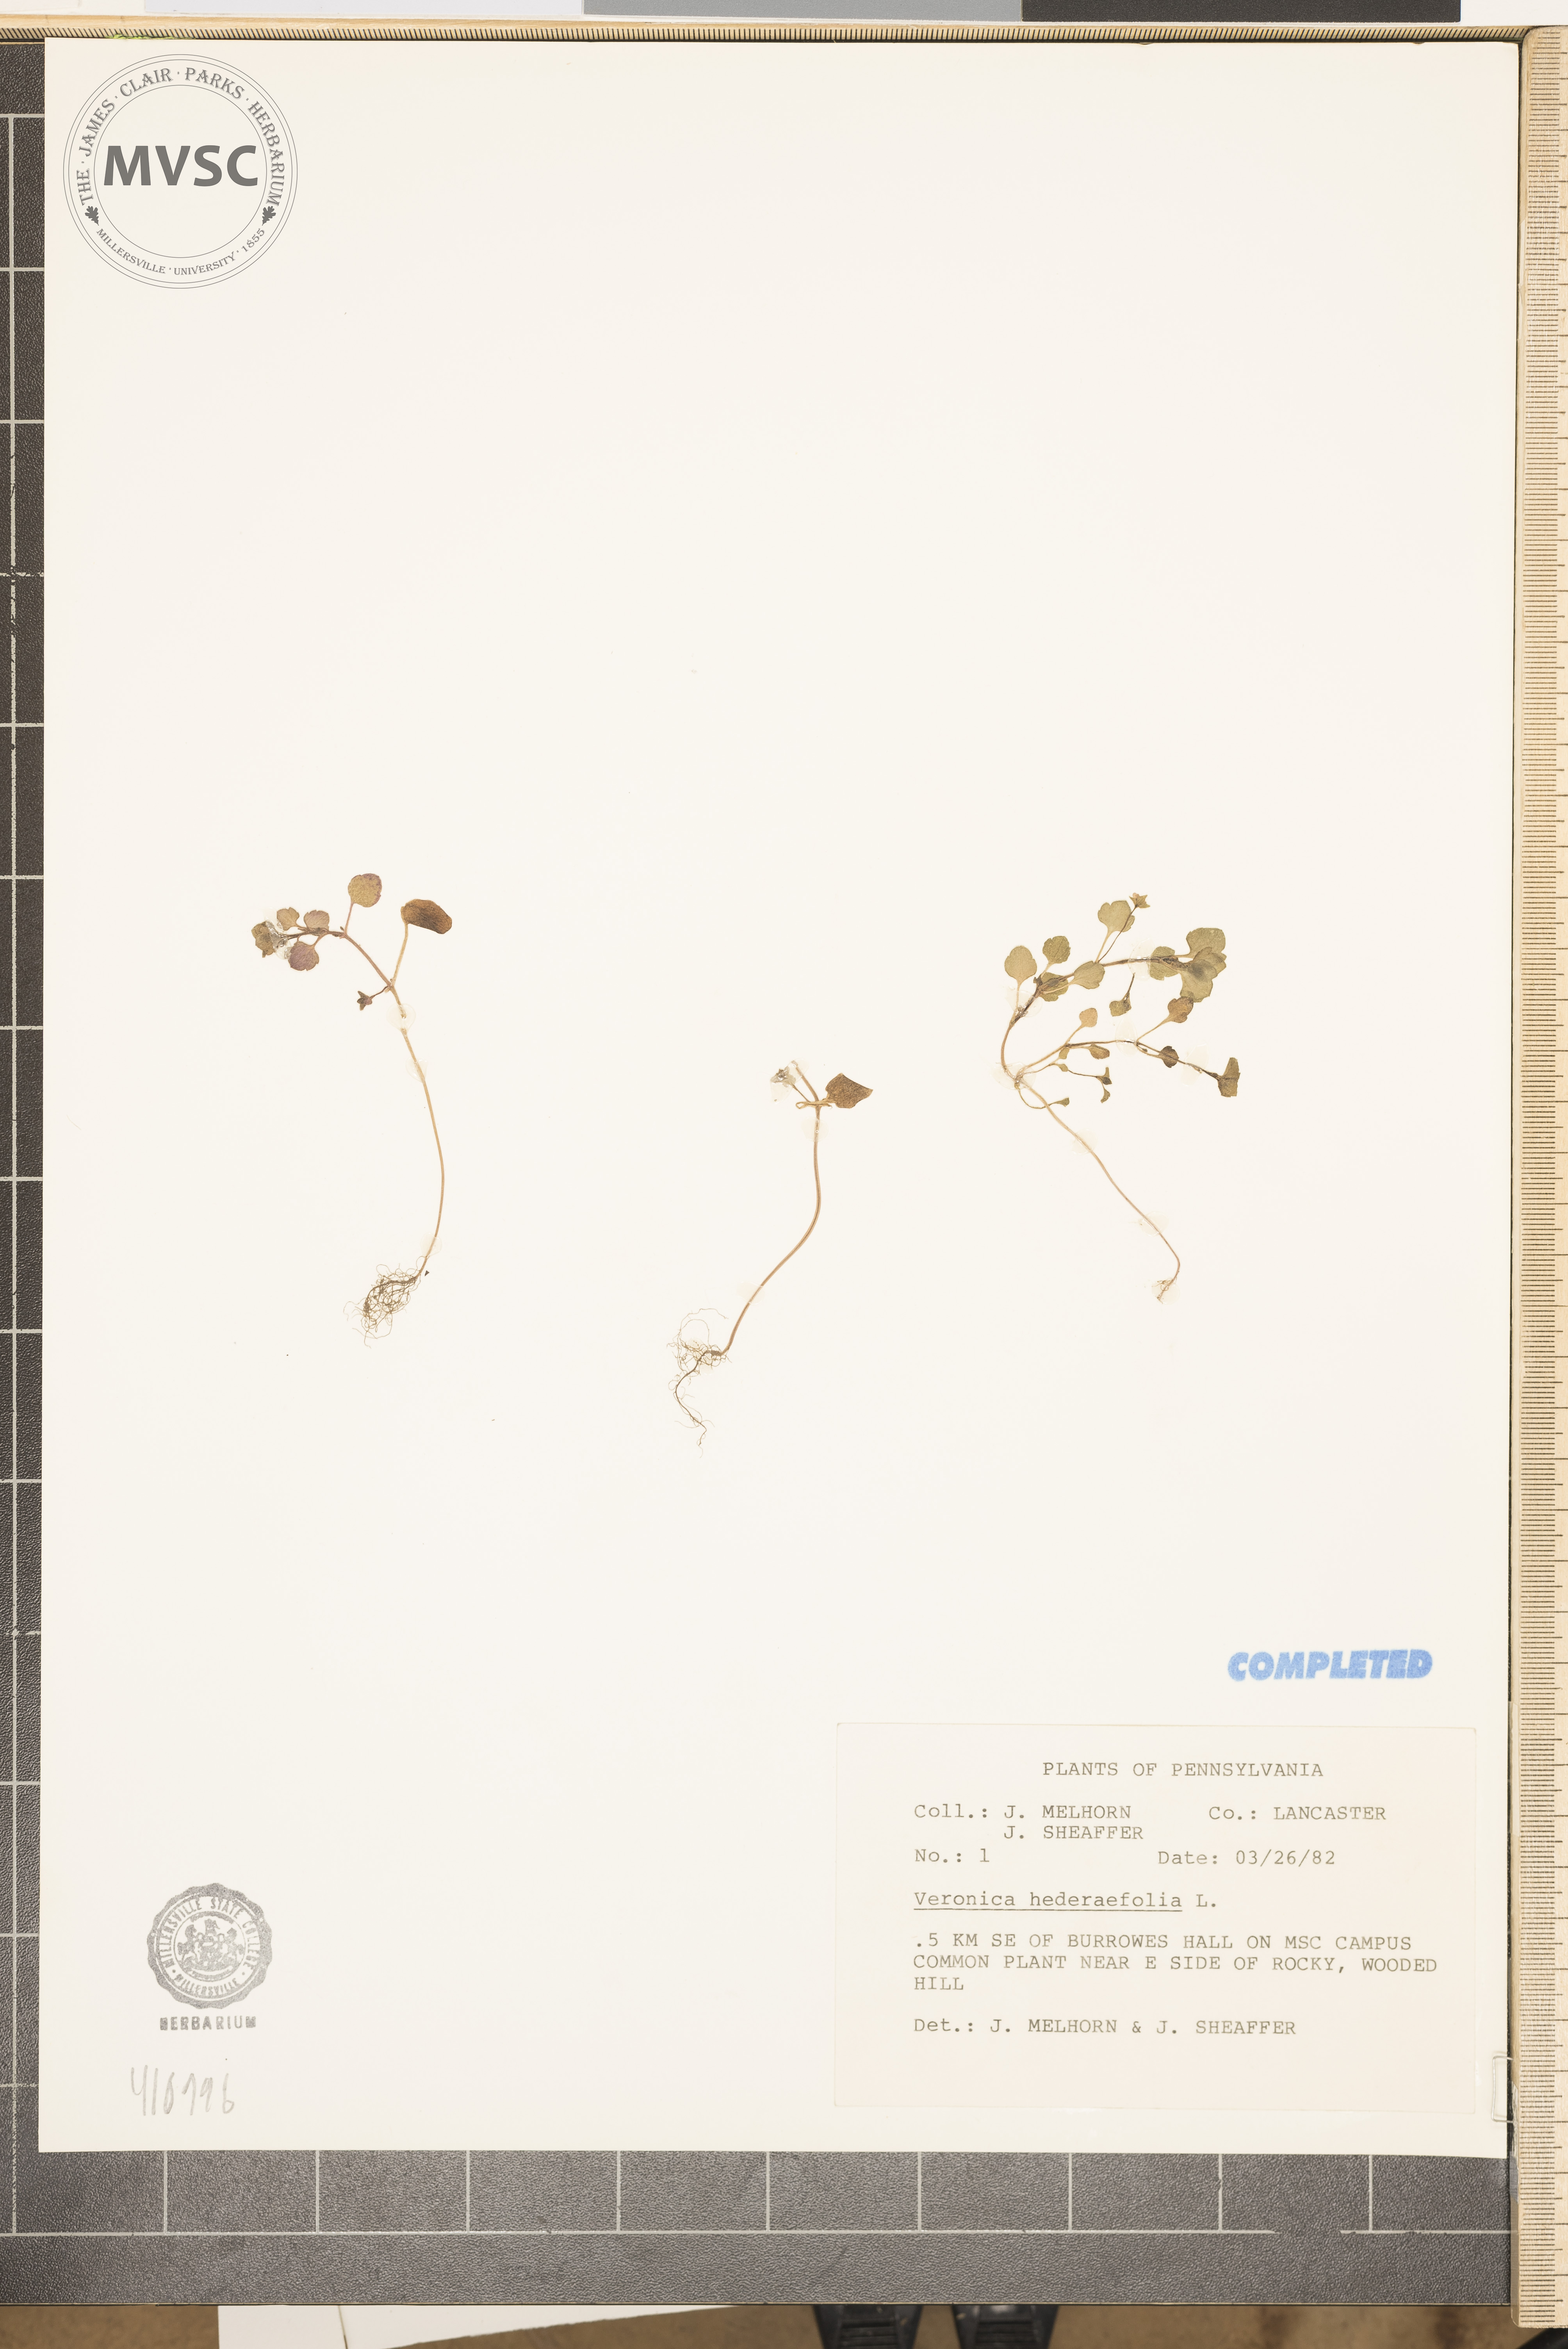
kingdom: Plantae
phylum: Tracheophyta
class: Magnoliopsida
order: Lamiales
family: Plantaginaceae
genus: Veronica
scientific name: Veronica hederifolia
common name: Ivy-leaved speedwell
